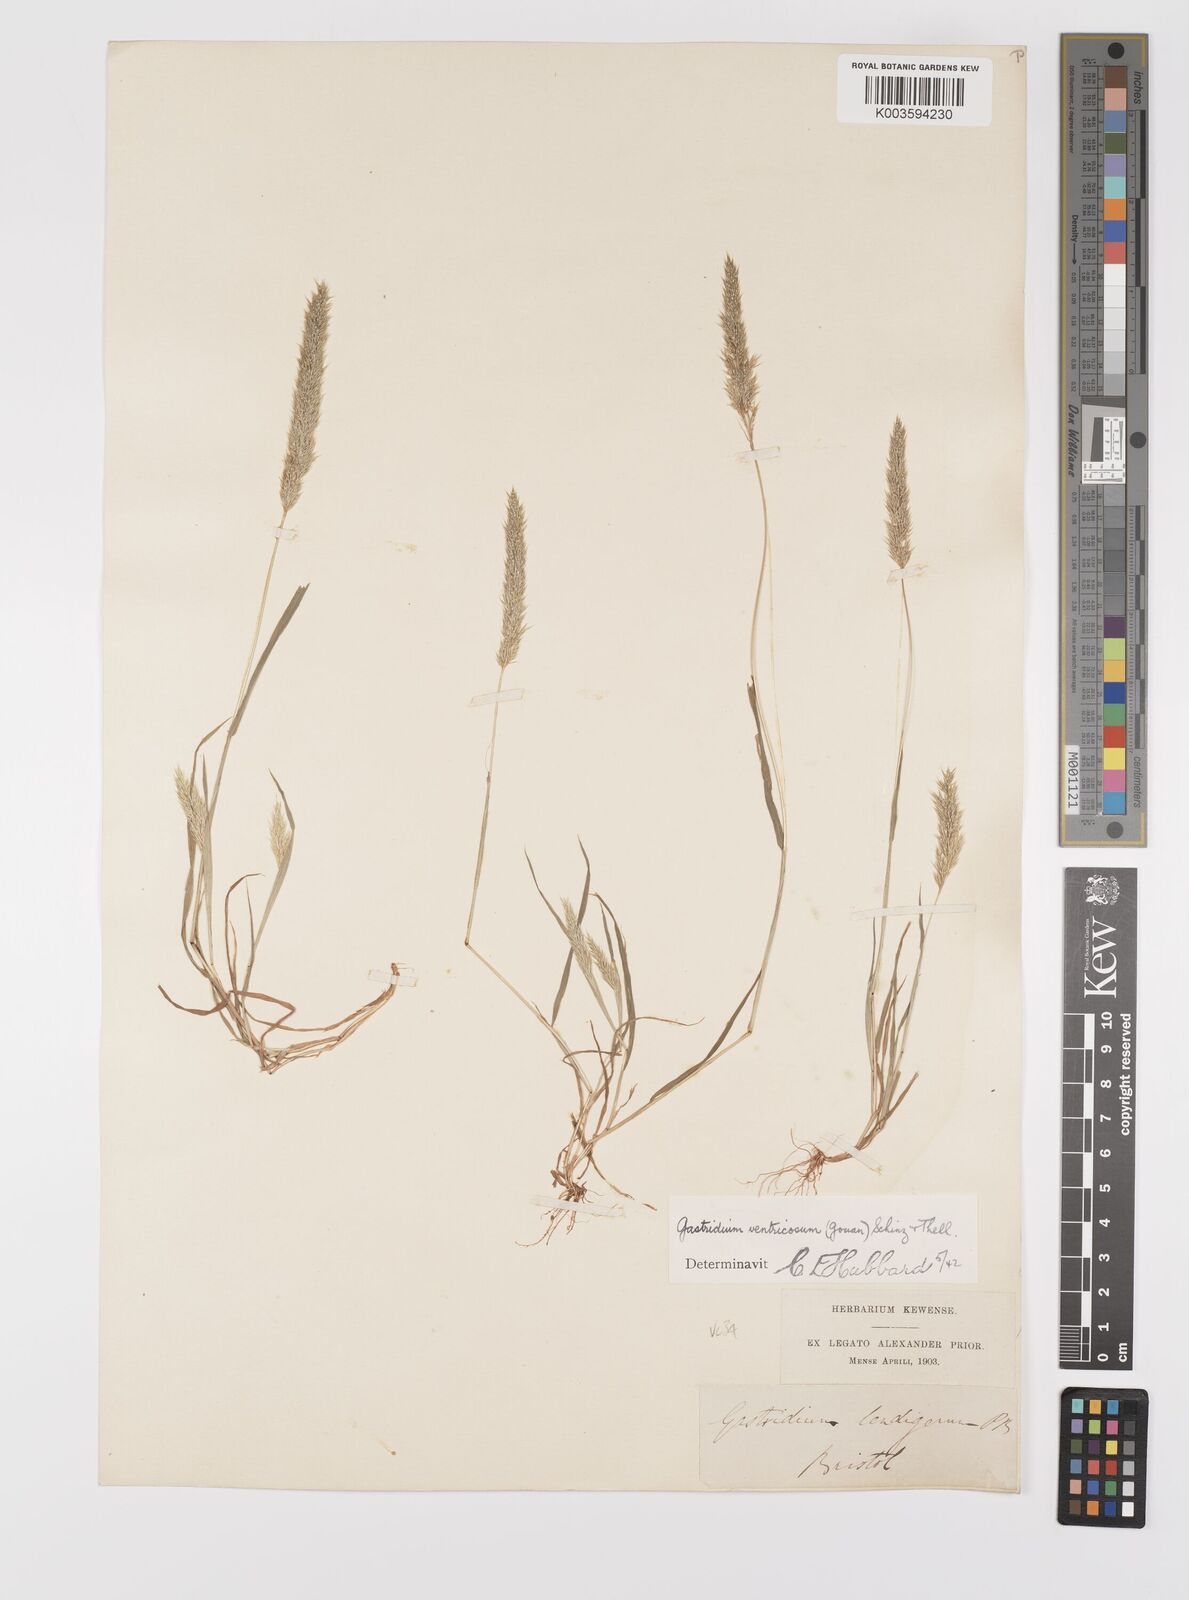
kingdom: Plantae
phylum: Tracheophyta
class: Liliopsida
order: Poales
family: Poaceae
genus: Gastridium
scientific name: Gastridium ventricosum
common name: Nit-grass
